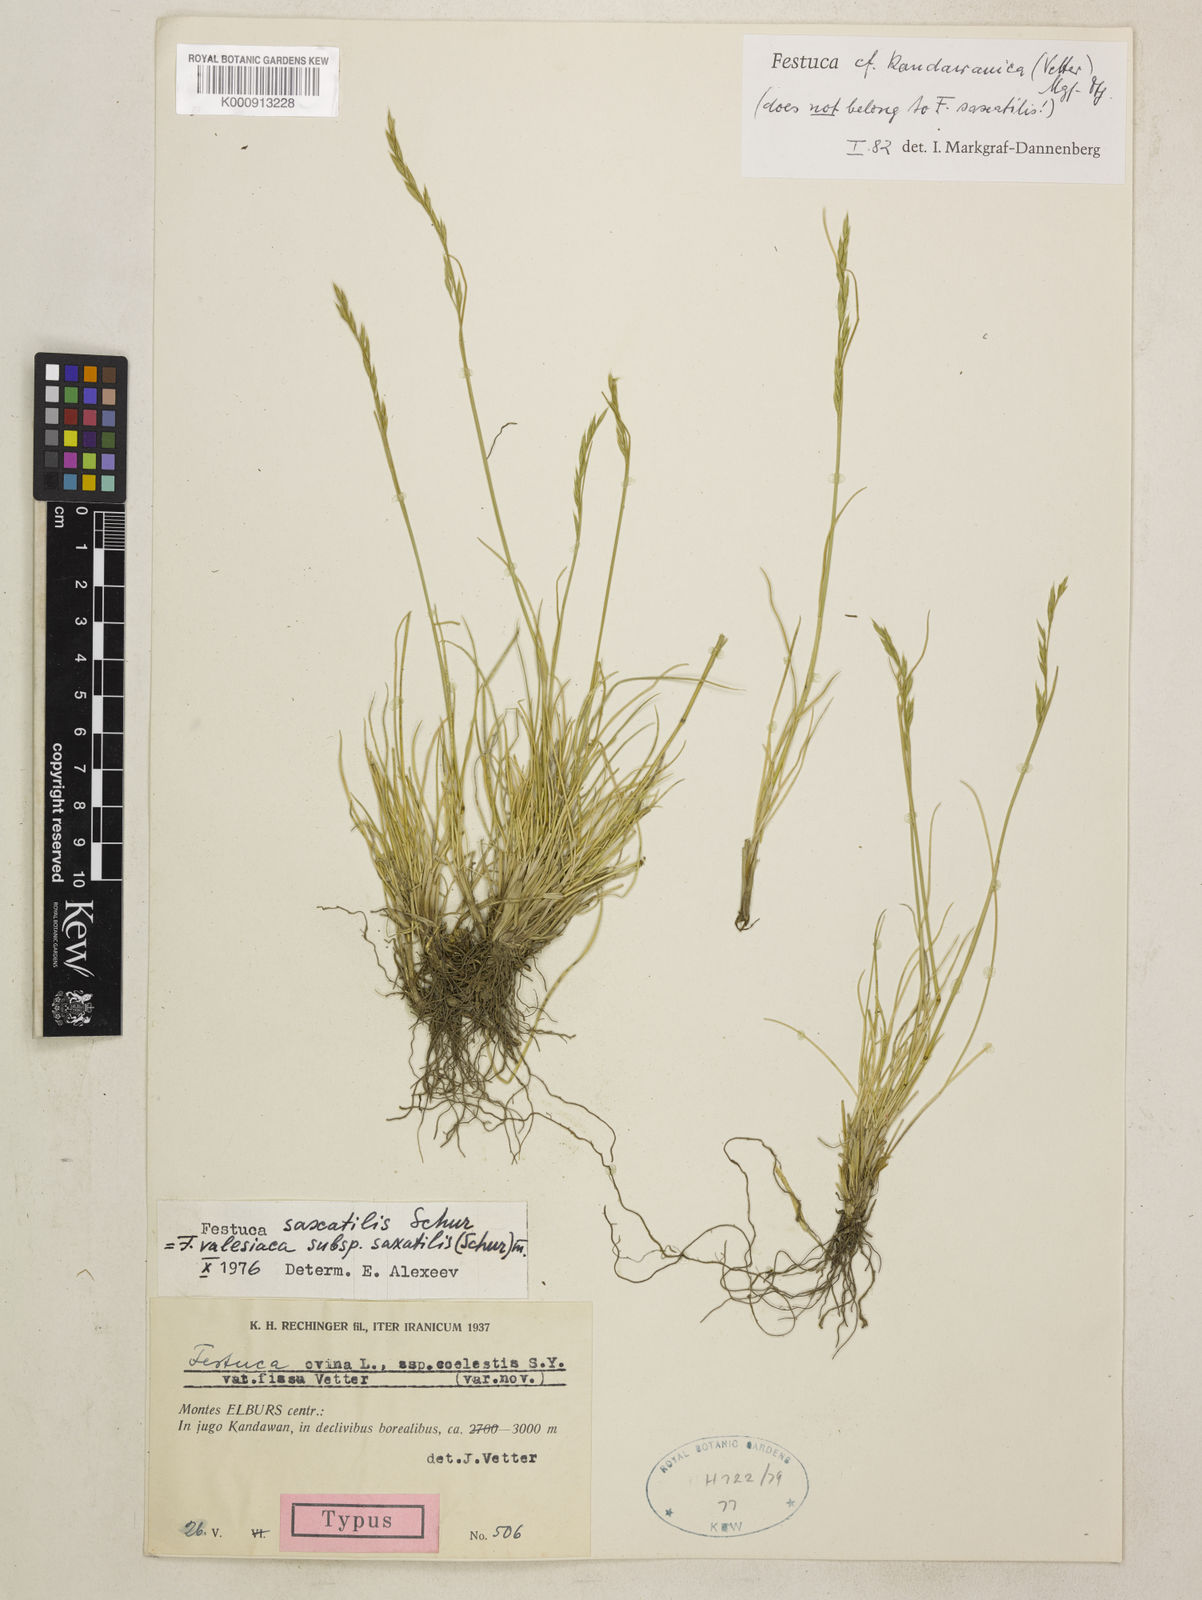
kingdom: Plantae
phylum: Tracheophyta
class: Liliopsida
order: Poales
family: Poaceae
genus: Festuca
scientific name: Festuca valesiaca
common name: Volga fescue
